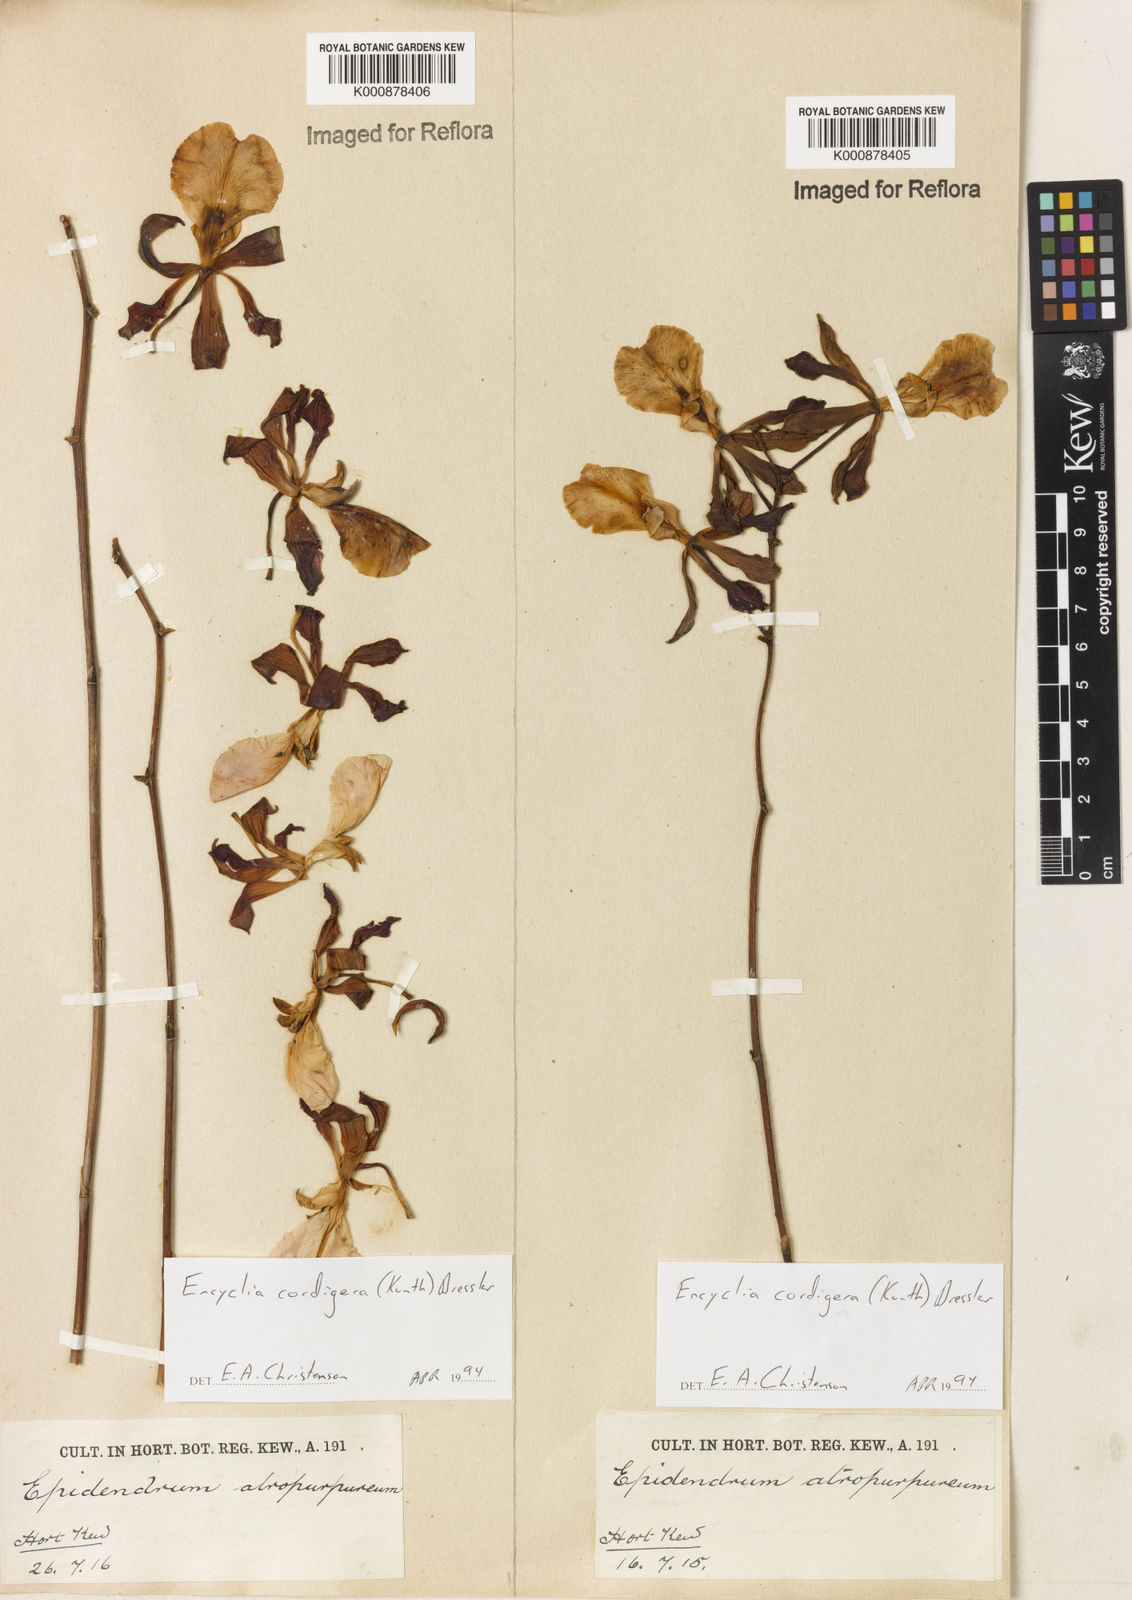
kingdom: Plantae
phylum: Tracheophyta
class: Liliopsida
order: Asparagales
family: Orchidaceae
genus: Encyclia
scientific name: Encyclia cordigera
